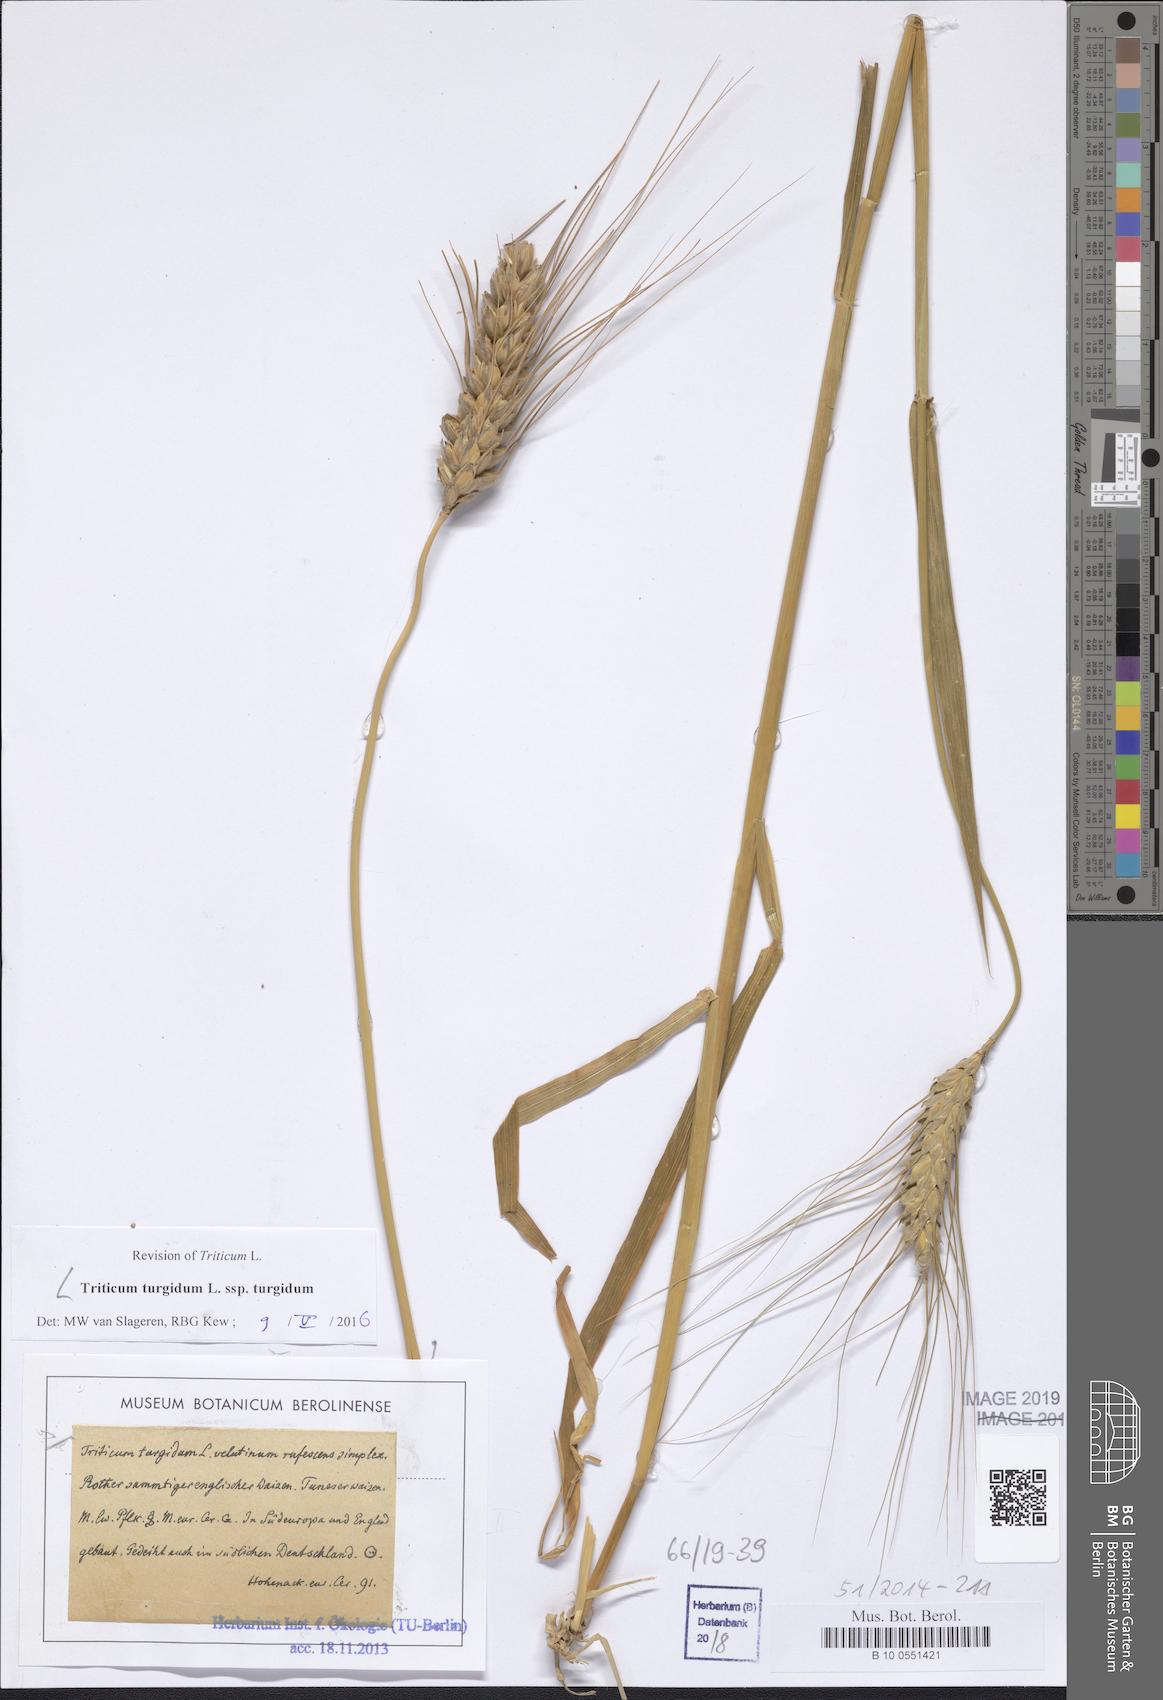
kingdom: Plantae
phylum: Tracheophyta
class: Liliopsida
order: Poales
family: Poaceae
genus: Triticum
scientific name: Triticum turgidum
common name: Rivet wheat
